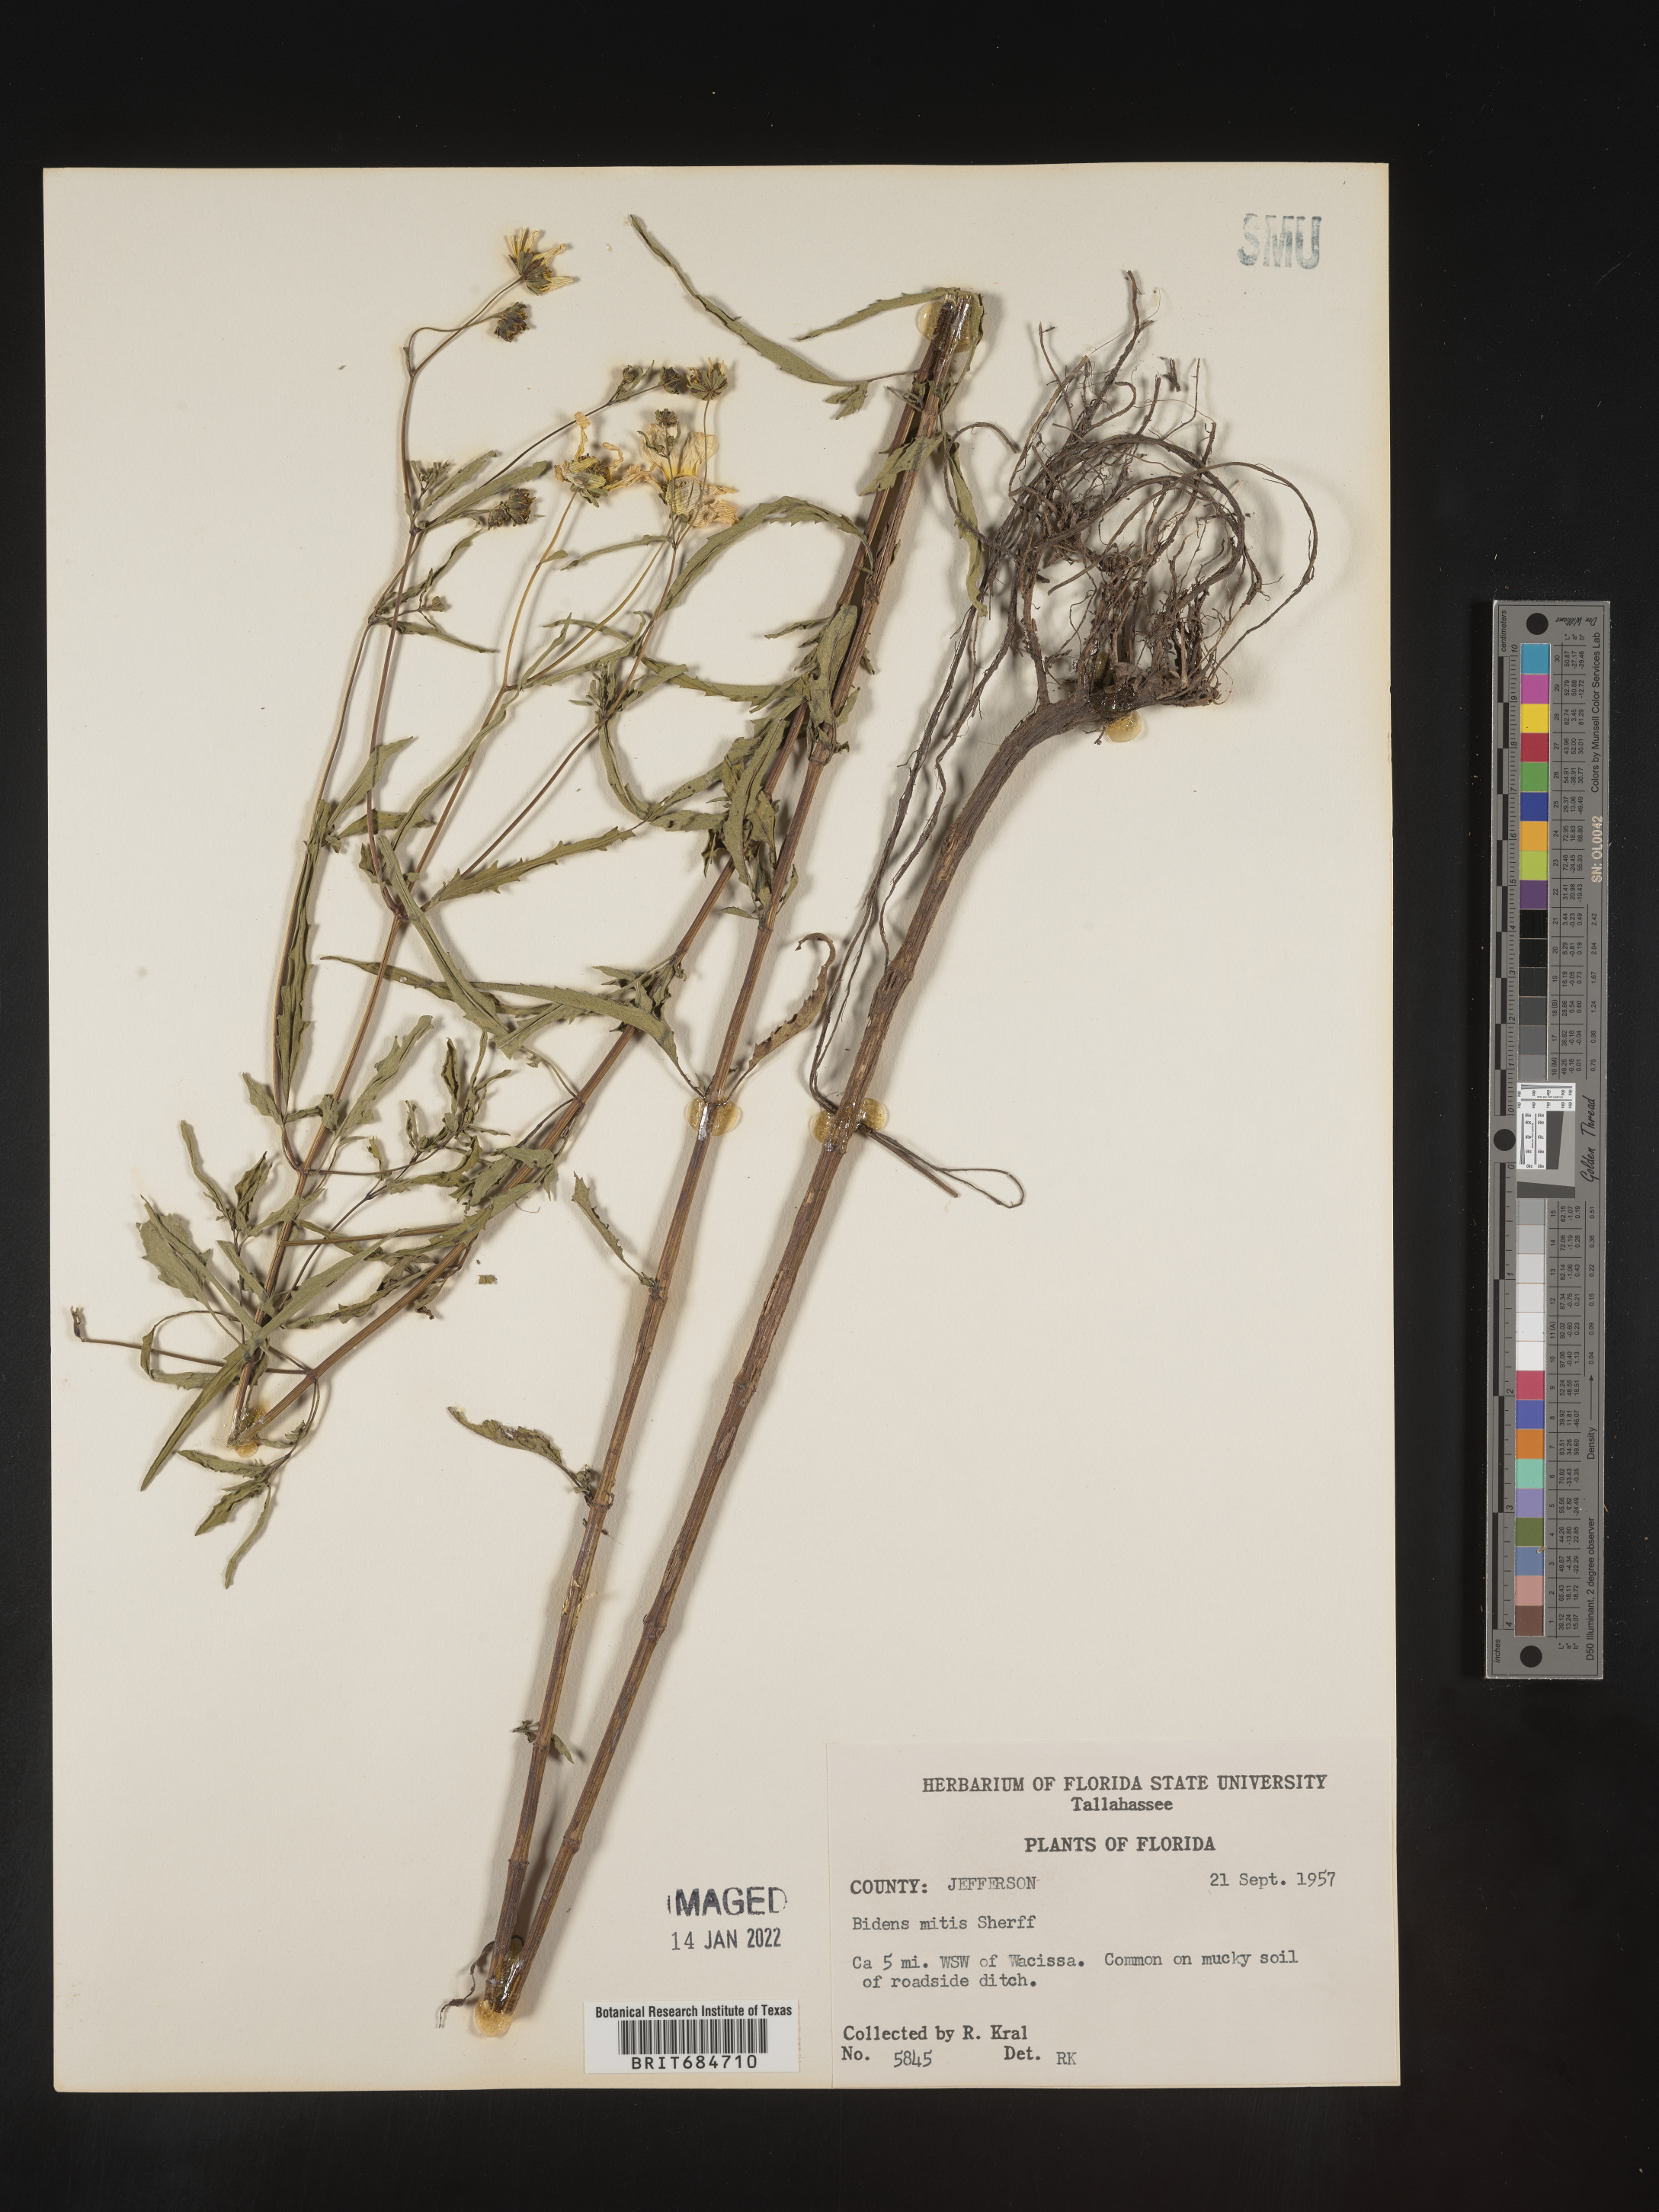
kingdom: Plantae
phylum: Tracheophyta
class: Magnoliopsida
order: Asterales
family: Asteraceae
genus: Bidens
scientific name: Bidens mitis
